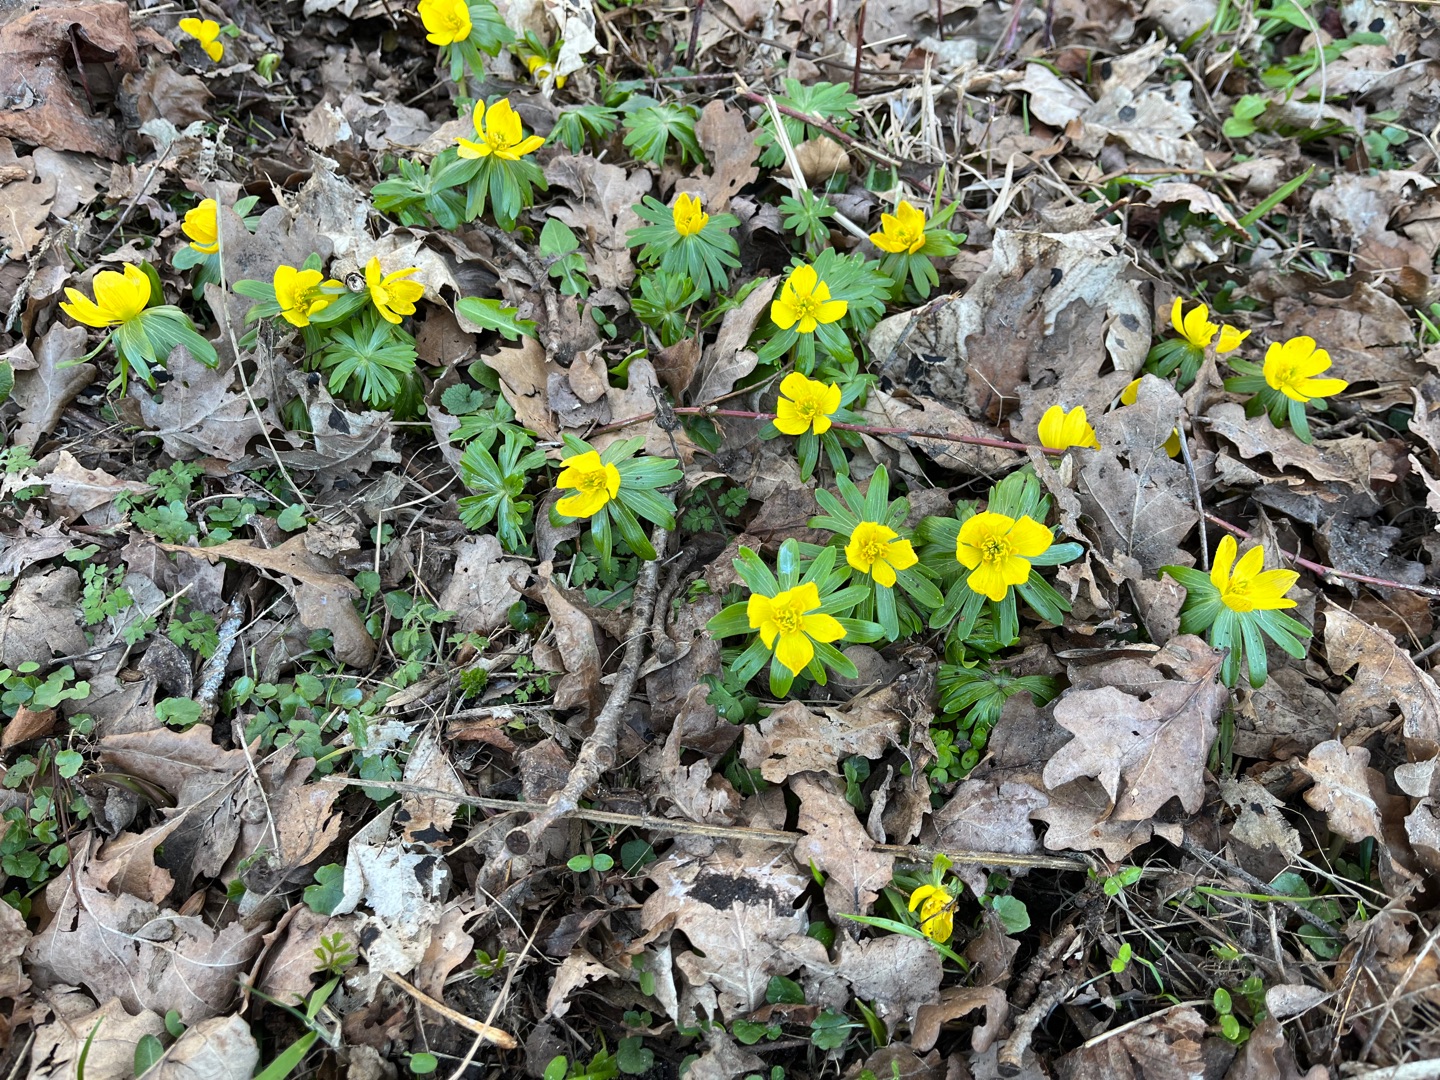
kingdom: Plantae
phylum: Tracheophyta
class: Magnoliopsida
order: Ranunculales
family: Ranunculaceae
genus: Eranthis
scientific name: Eranthis hyemalis
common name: Erantis
